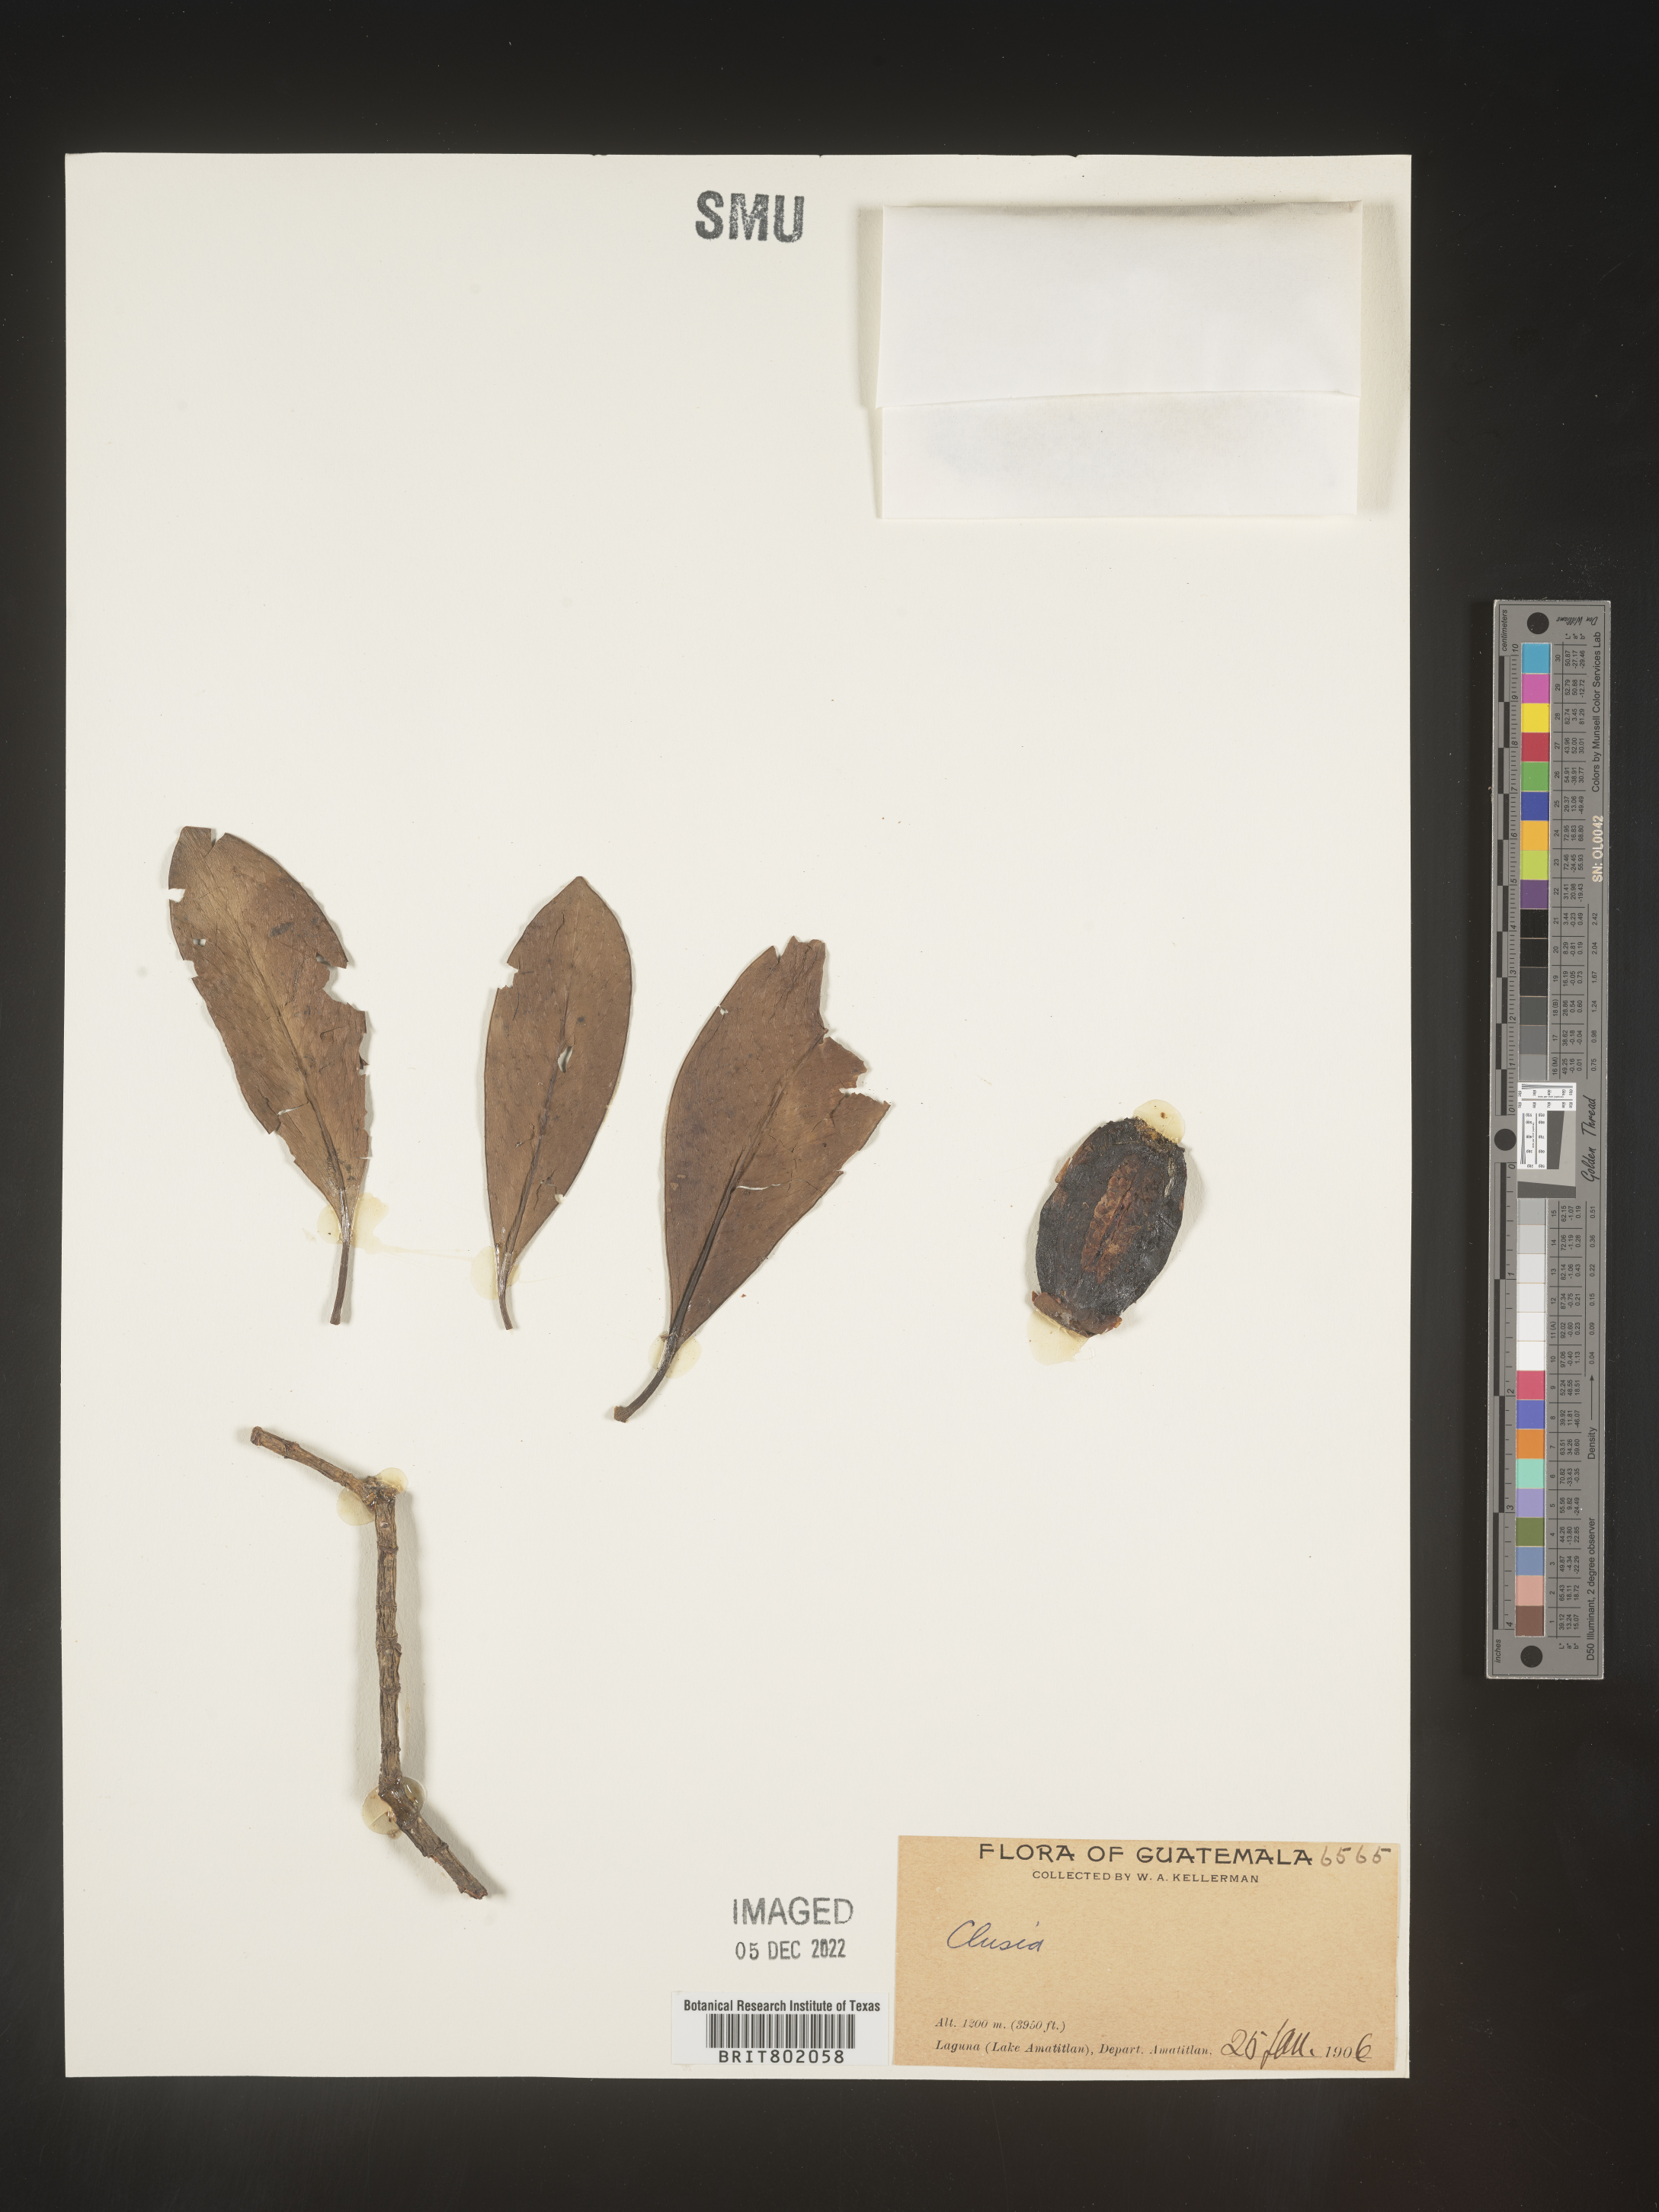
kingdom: Plantae
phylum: Tracheophyta
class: Magnoliopsida
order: Malpighiales
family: Clusiaceae
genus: Clusia
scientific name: Clusia
